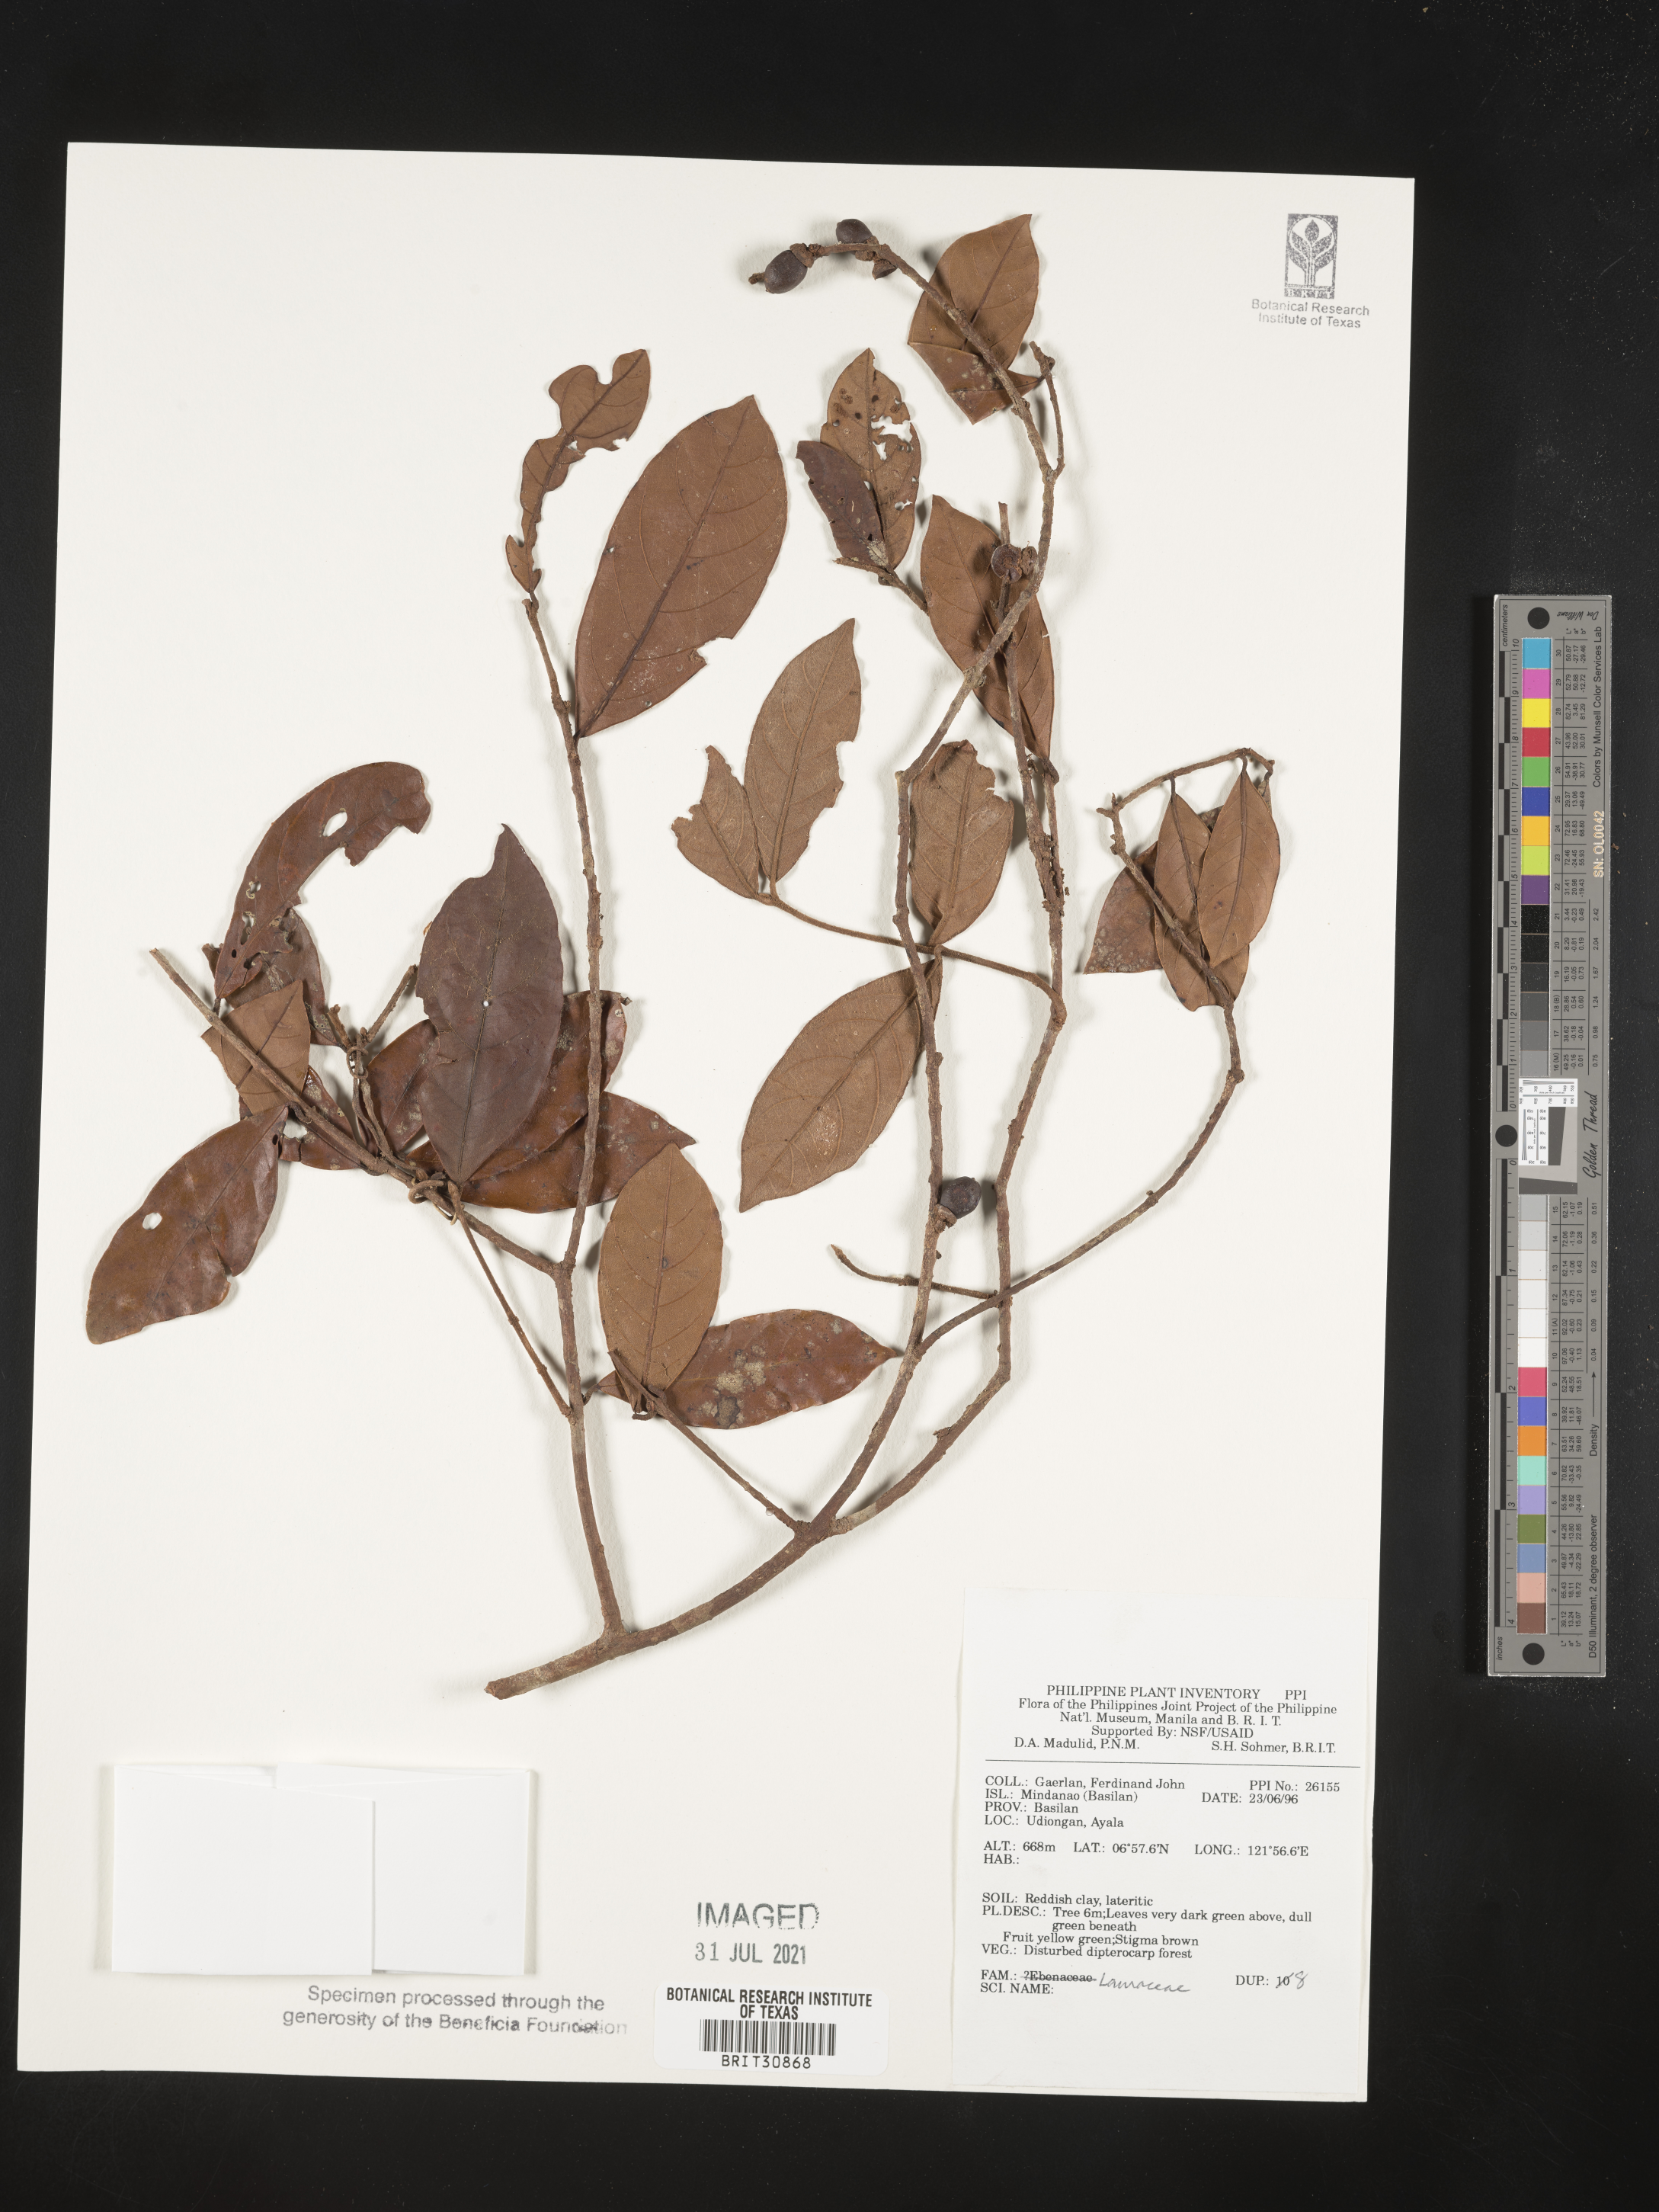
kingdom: Plantae
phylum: Tracheophyta
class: Magnoliopsida
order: Laurales
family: Lauraceae
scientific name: Lauraceae
